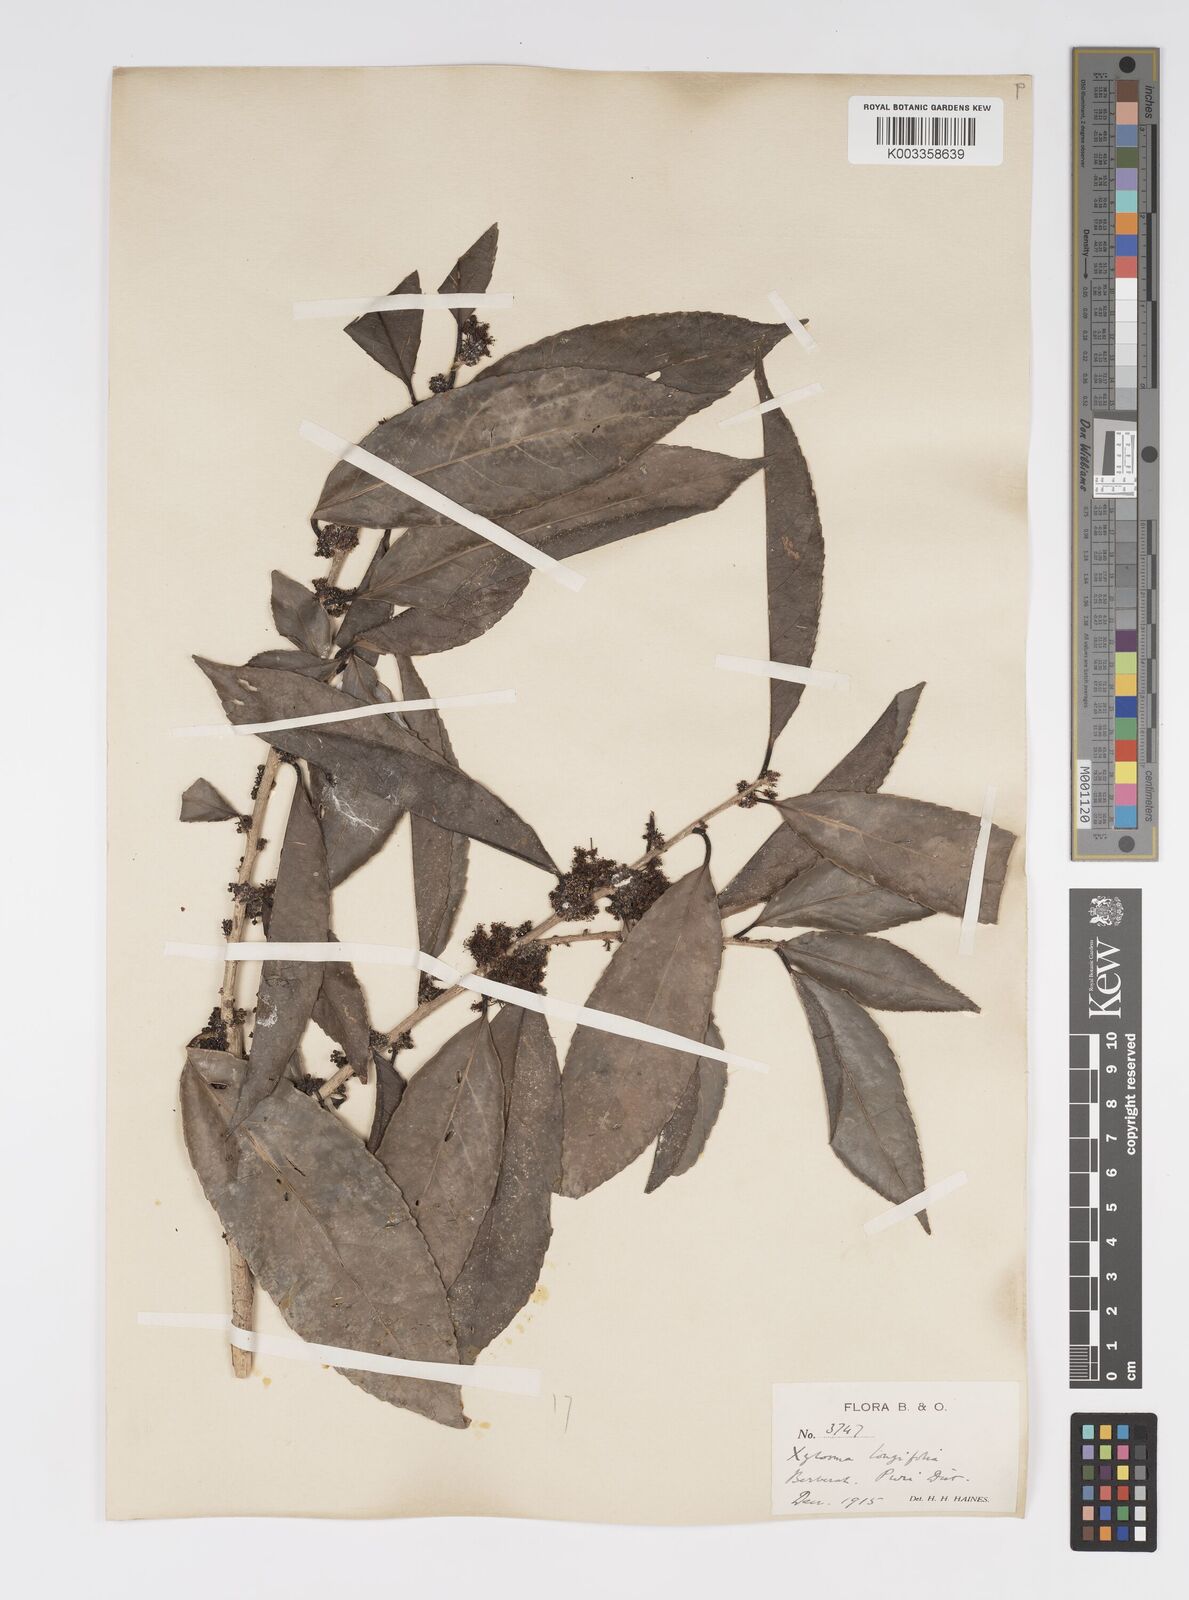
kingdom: Plantae
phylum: Tracheophyta
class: Magnoliopsida
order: Malpighiales
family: Salicaceae
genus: Xylosma
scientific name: Xylosma longifolia
